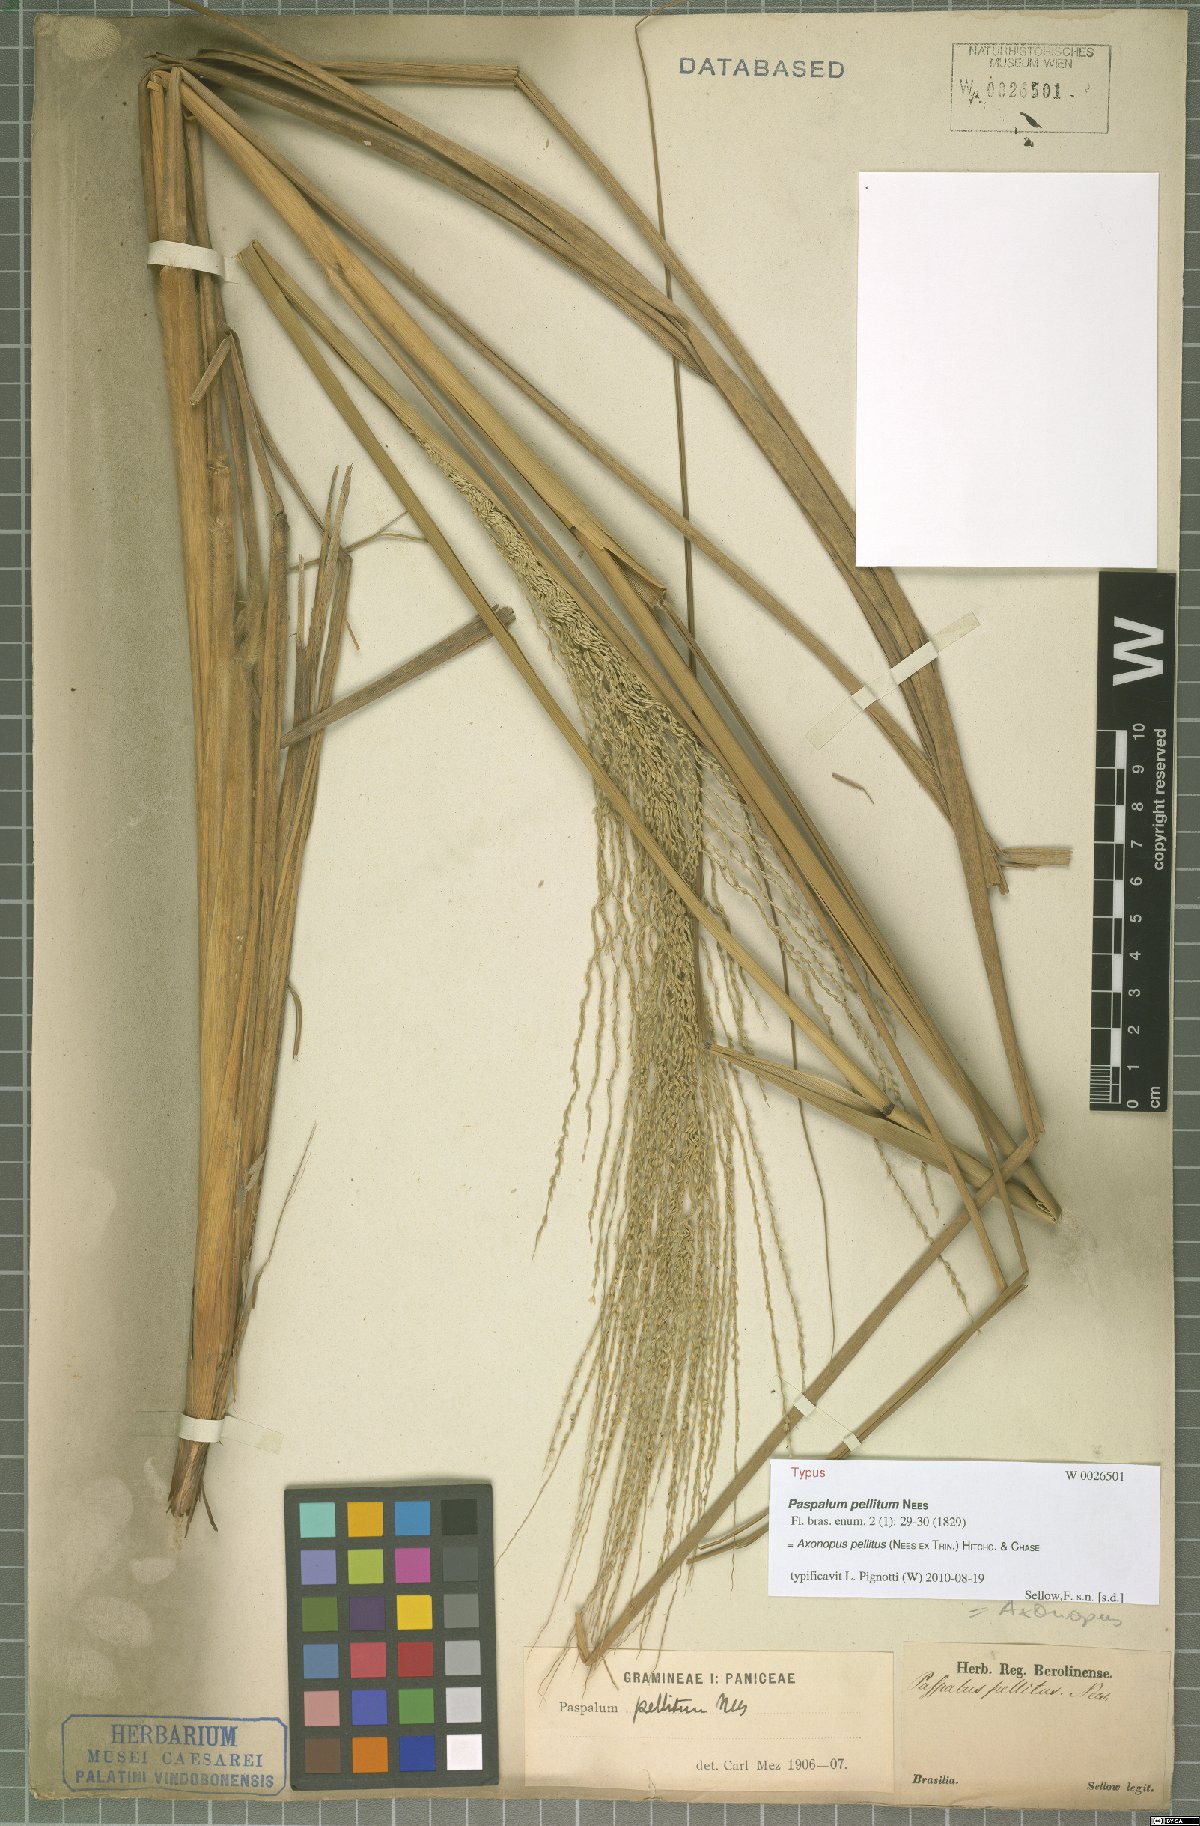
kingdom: Plantae
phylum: Tracheophyta
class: Liliopsida
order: Poales
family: Poaceae
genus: Axonopus
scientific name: Axonopus siccus
